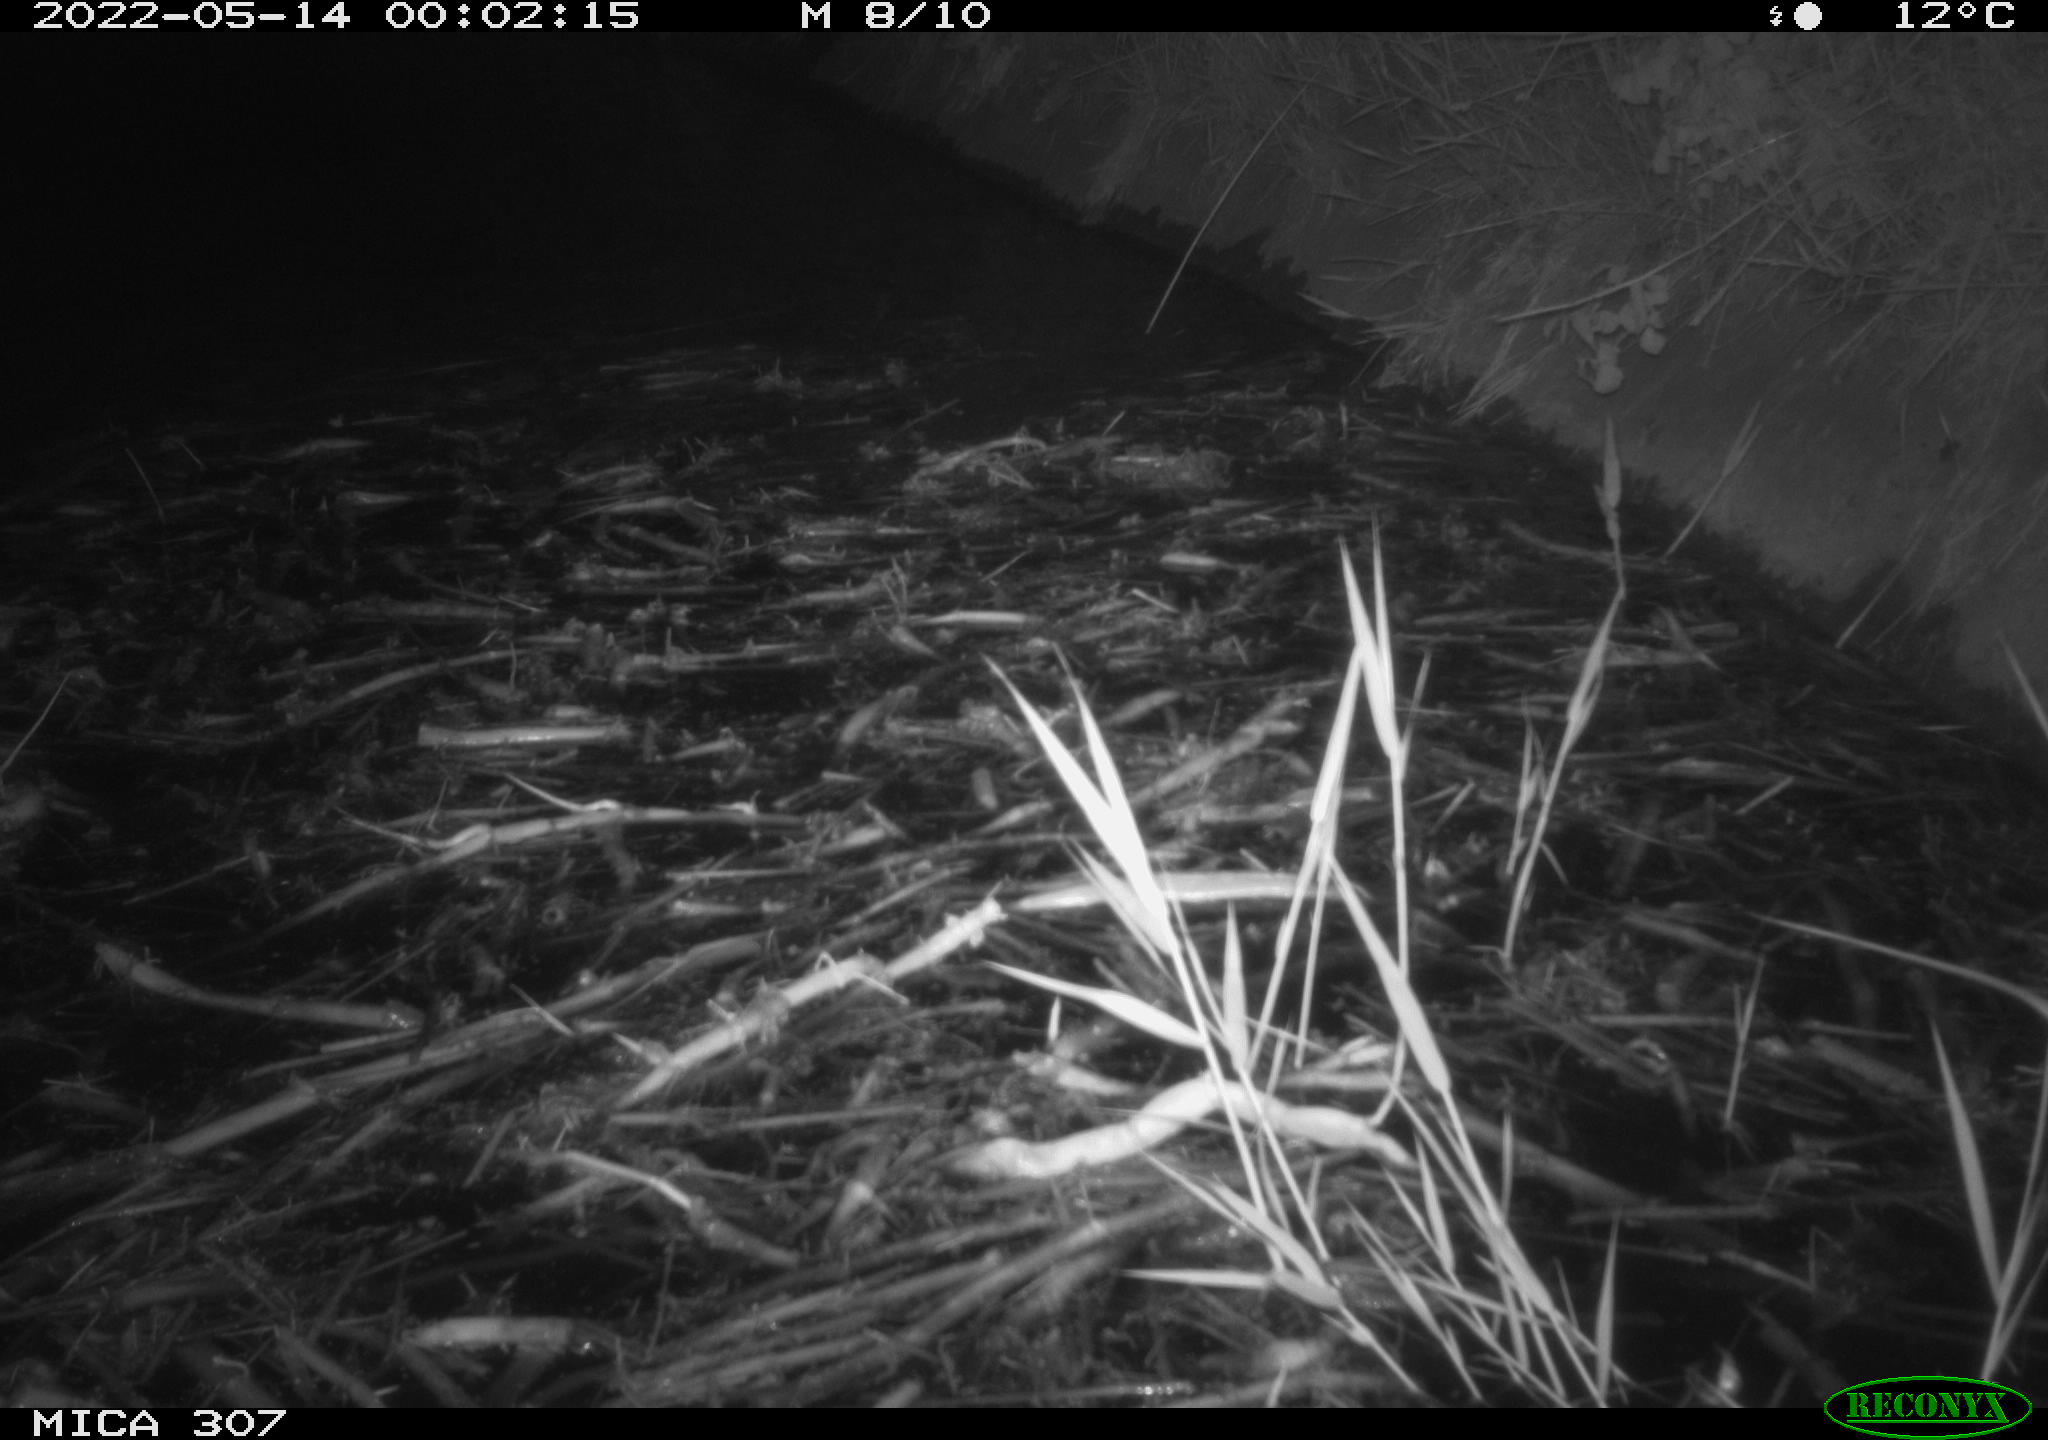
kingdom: Animalia
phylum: Chordata
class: Aves
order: Anseriformes
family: Anatidae
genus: Anas
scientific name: Anas platyrhynchos
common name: Mallard
